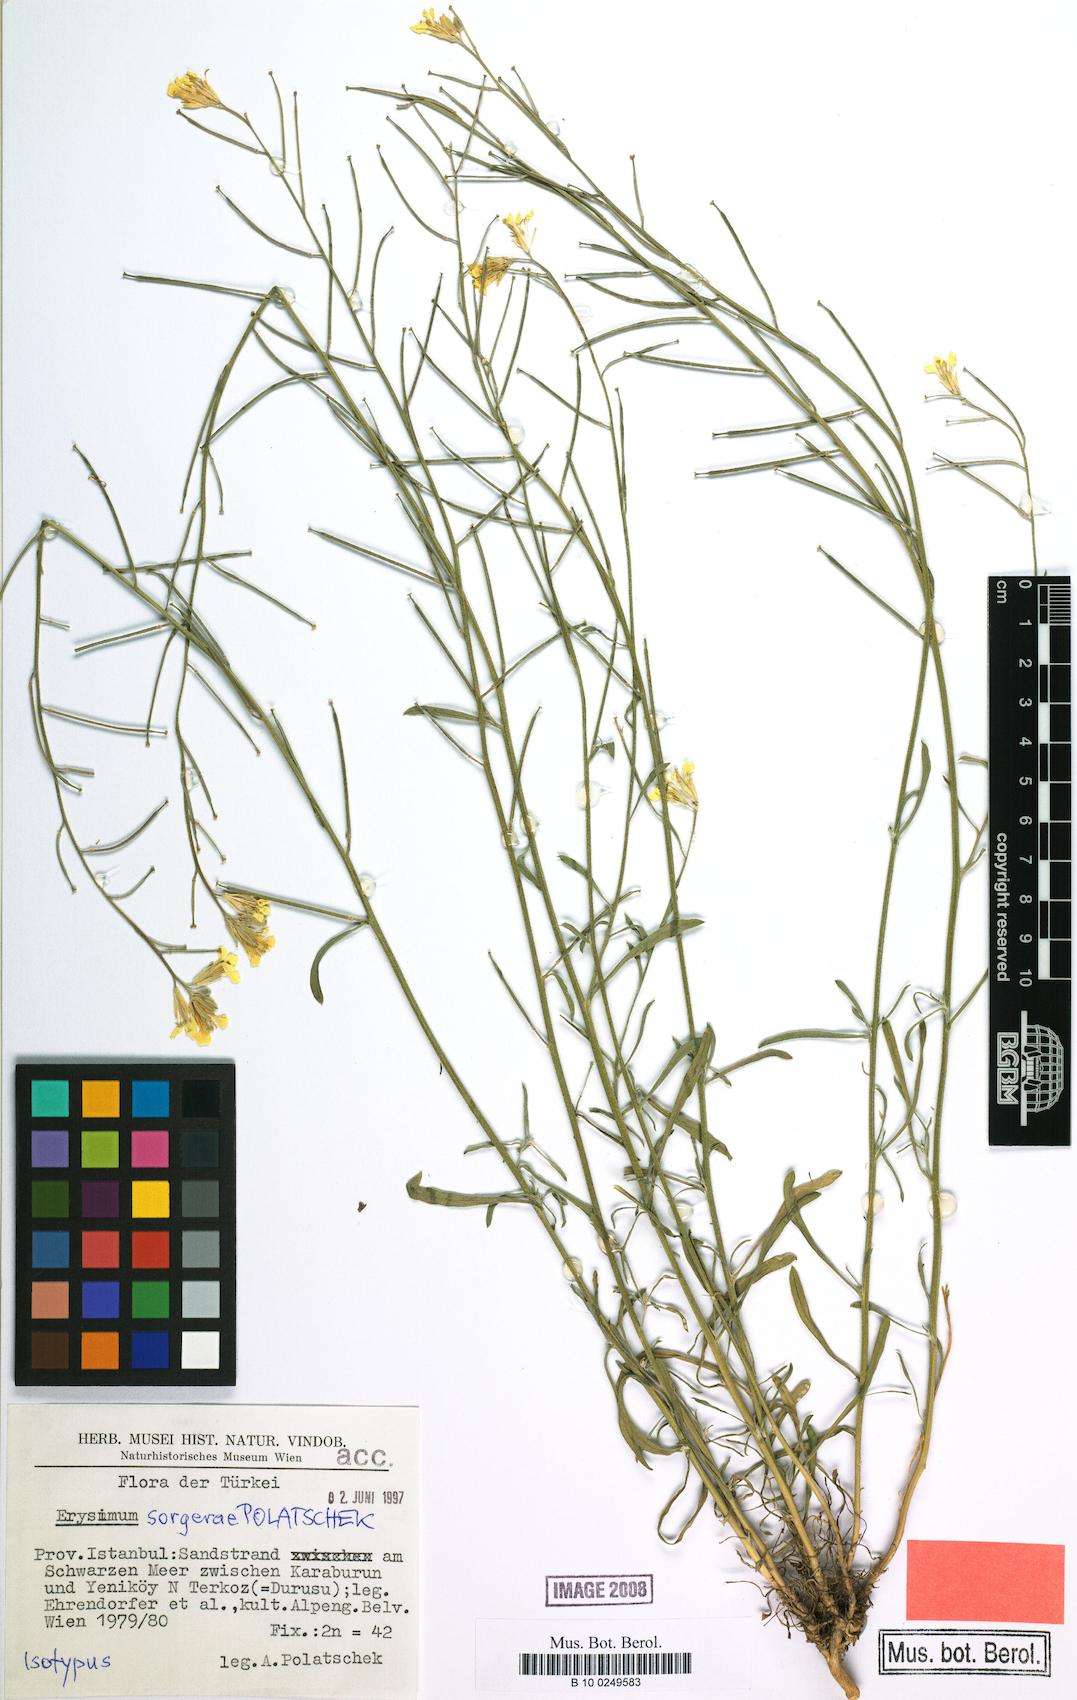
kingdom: Plantae
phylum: Tracheophyta
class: Magnoliopsida
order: Brassicales
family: Brassicaceae
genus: Erysimum
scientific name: Erysimum sorgerae
